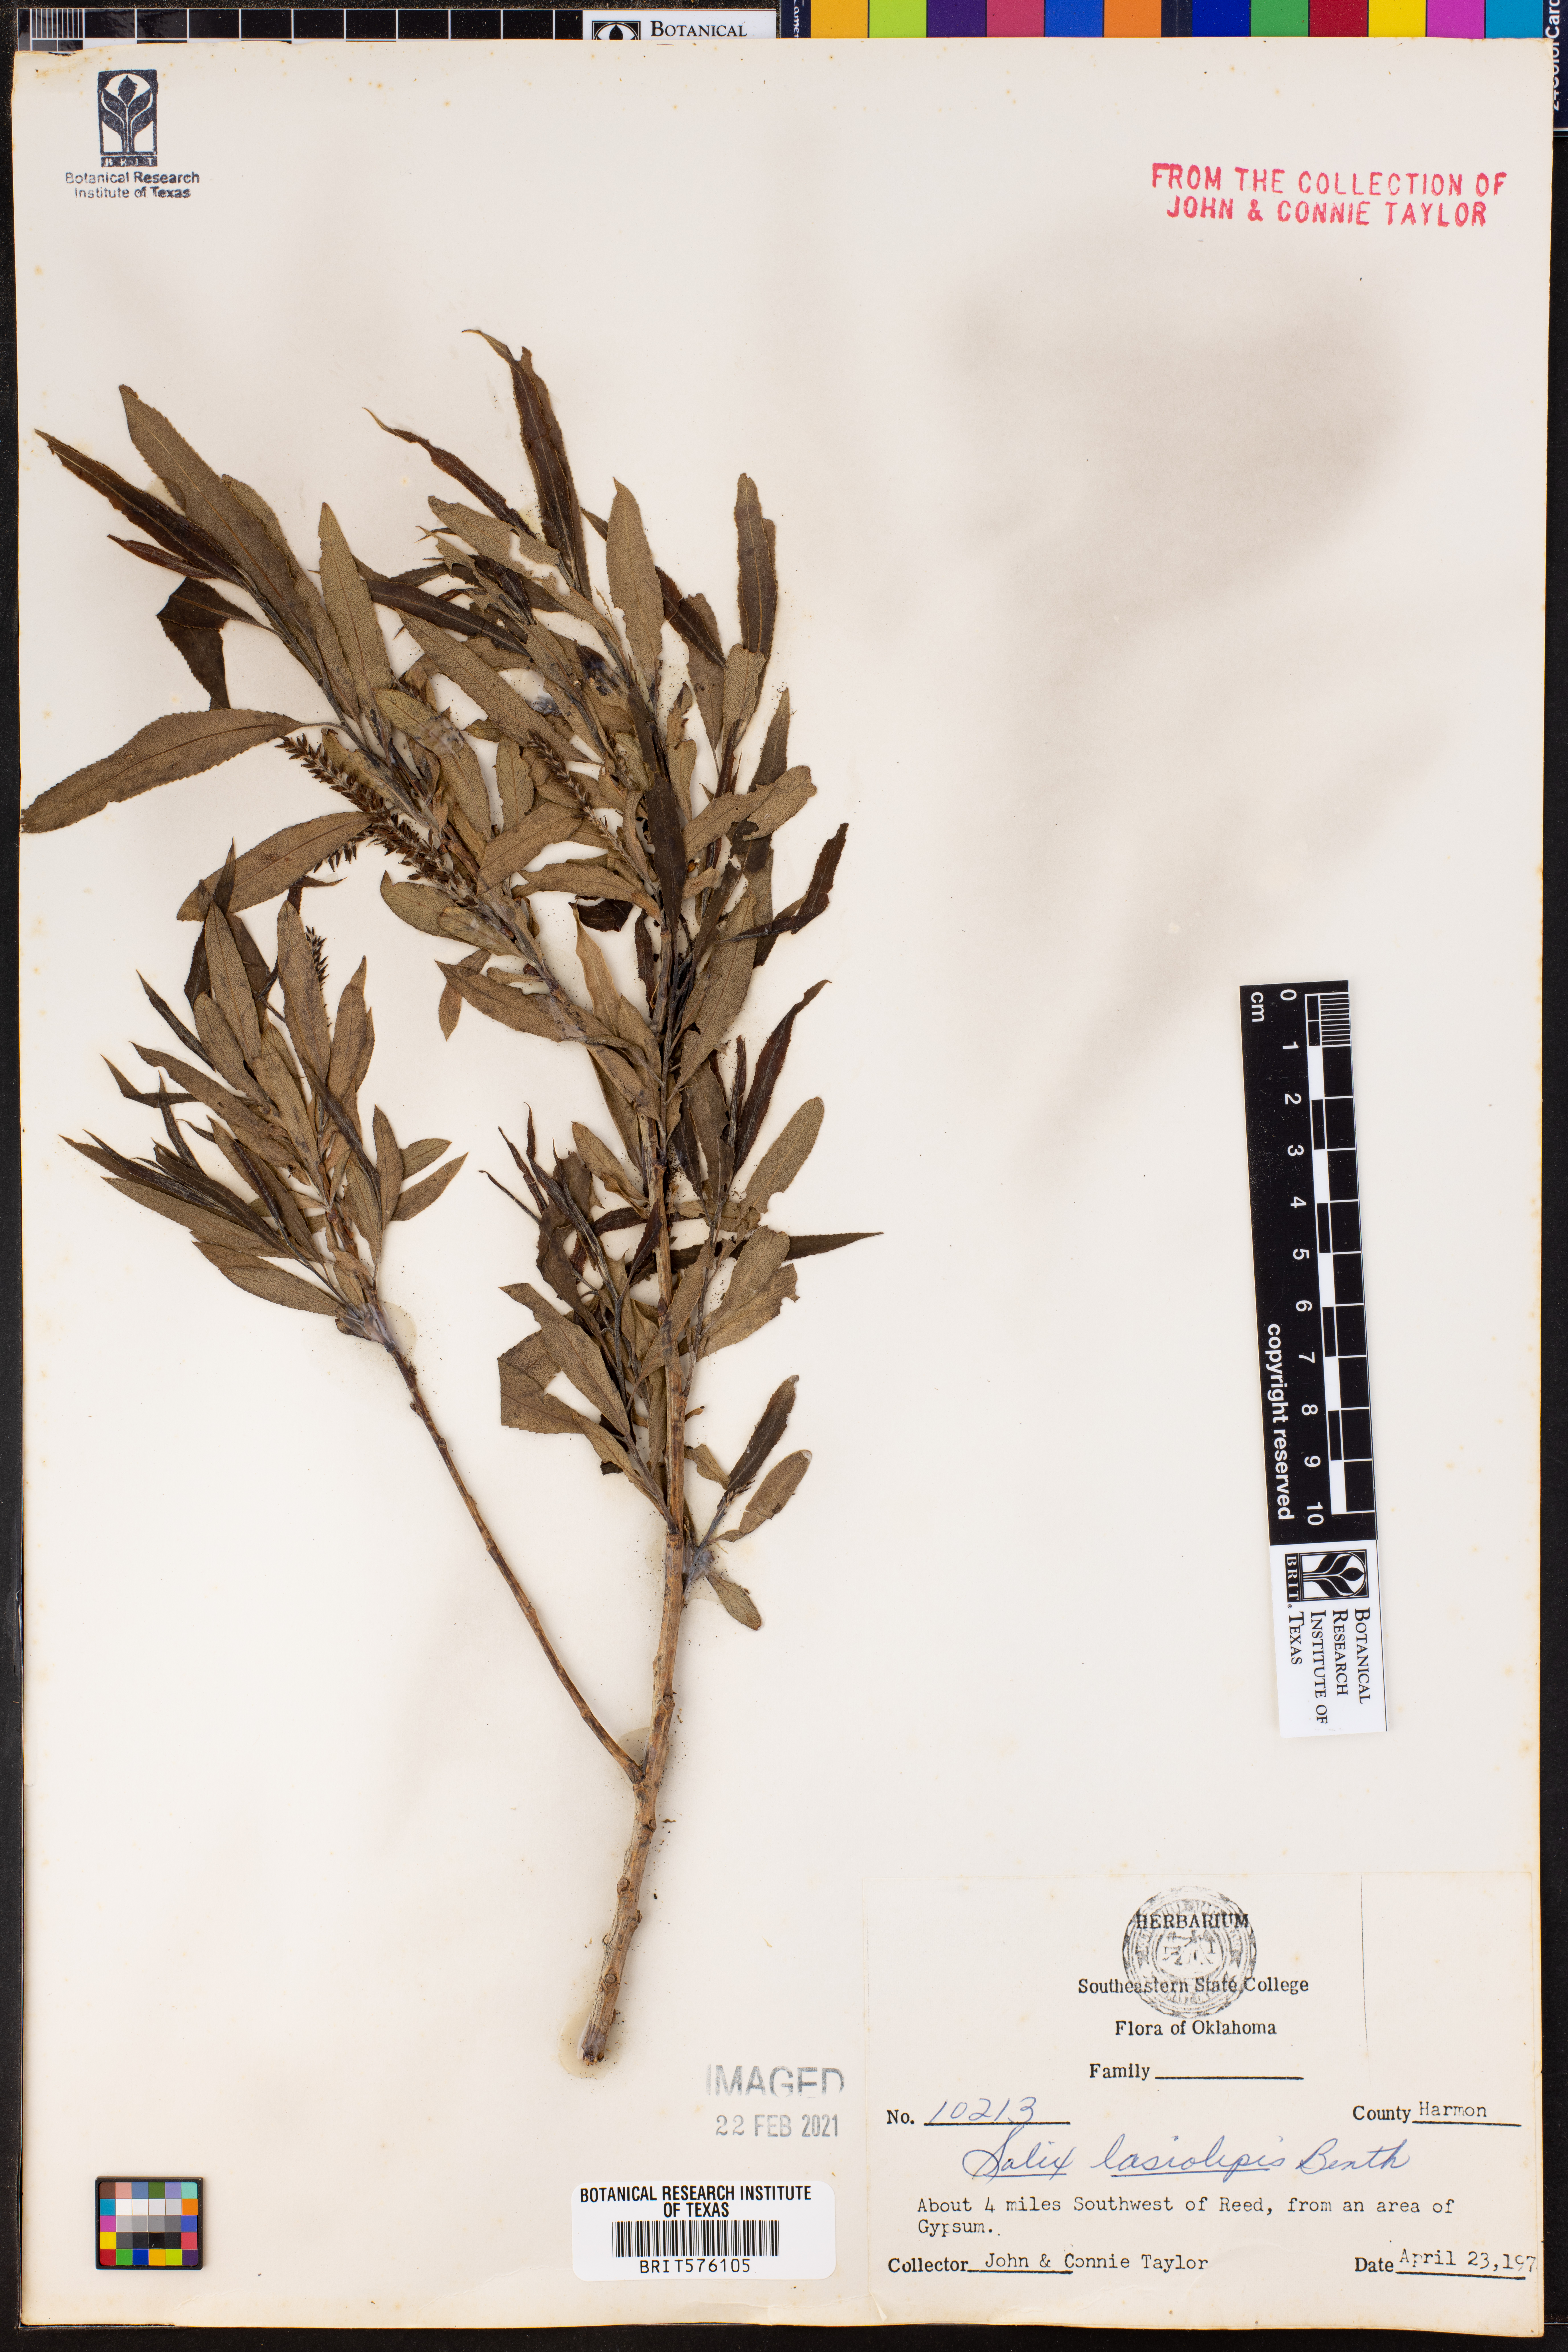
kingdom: Plantae
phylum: Tracheophyta
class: Magnoliopsida
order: Malpighiales
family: Salicaceae
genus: Salix
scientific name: Salix lasiolepis
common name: Arroyo willow
